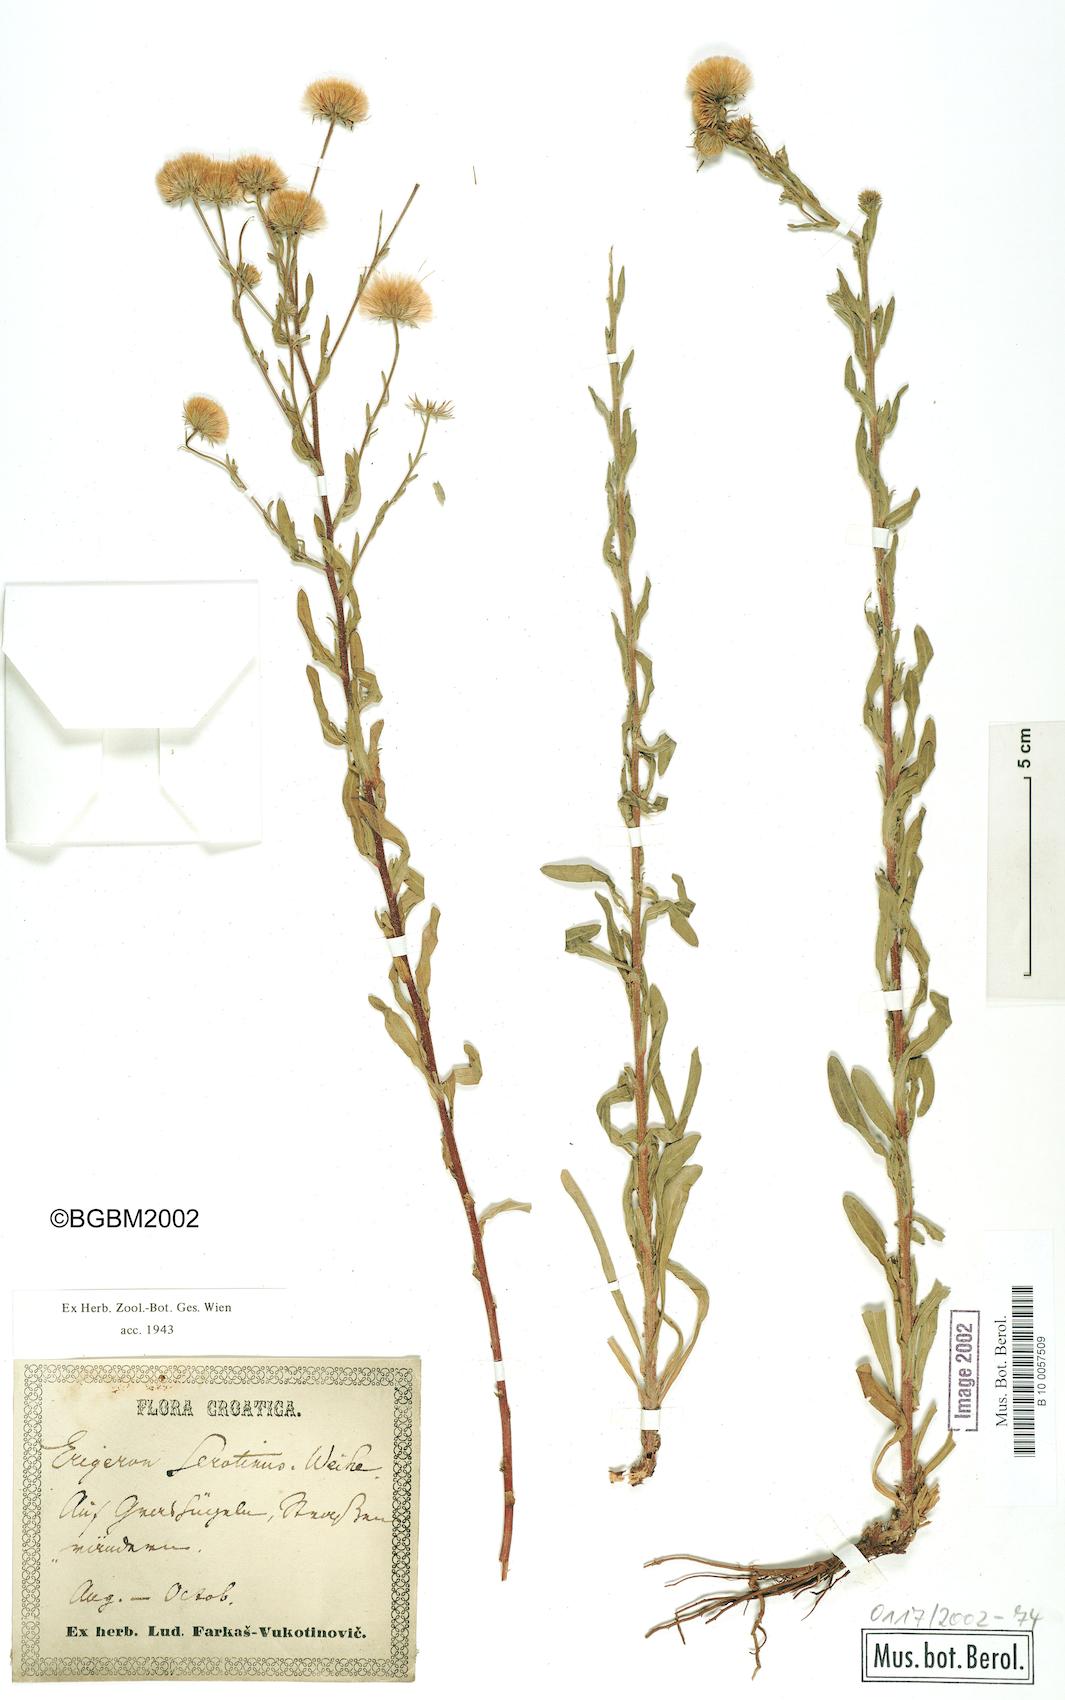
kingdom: Plantae
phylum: Tracheophyta
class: Magnoliopsida
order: Asterales
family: Asteraceae
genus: Erigeron
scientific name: Erigeron muralis
